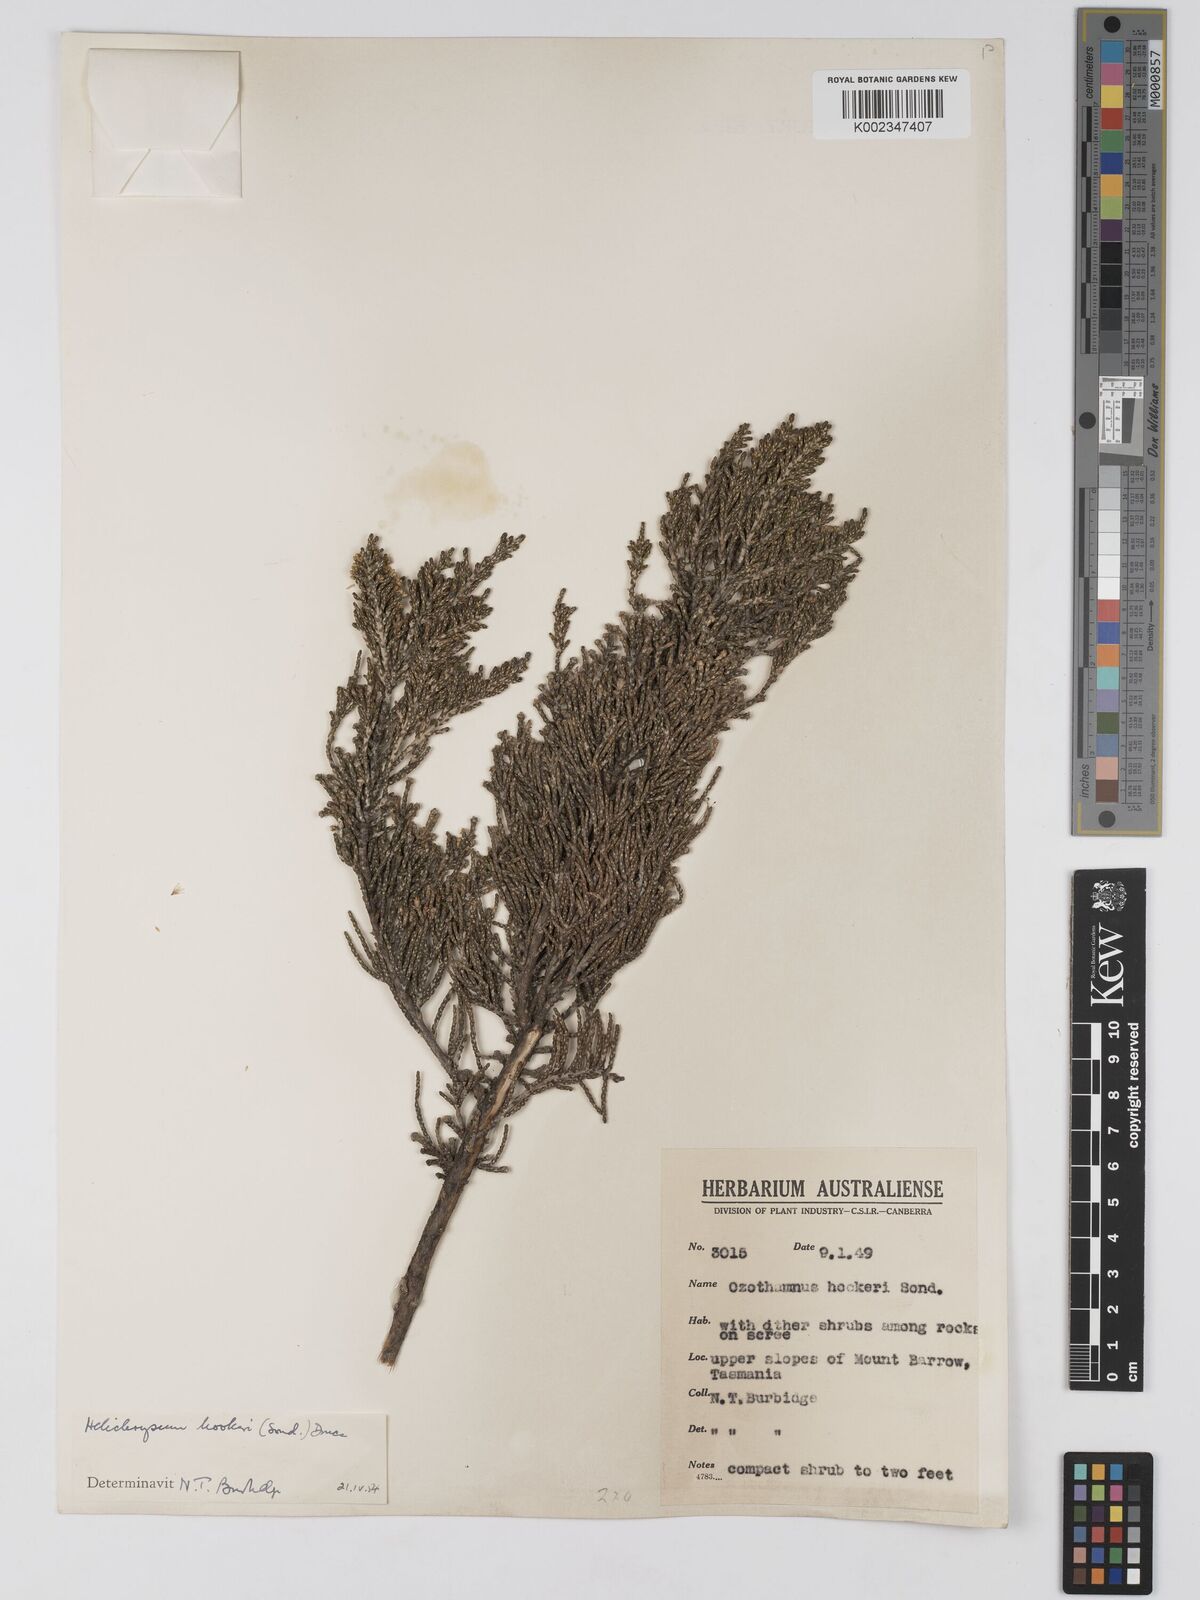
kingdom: Plantae
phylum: Tracheophyta
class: Magnoliopsida
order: Asterales
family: Asteraceae
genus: Ozothamnus
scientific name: Ozothamnus hookeri
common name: Kerosene-bush
